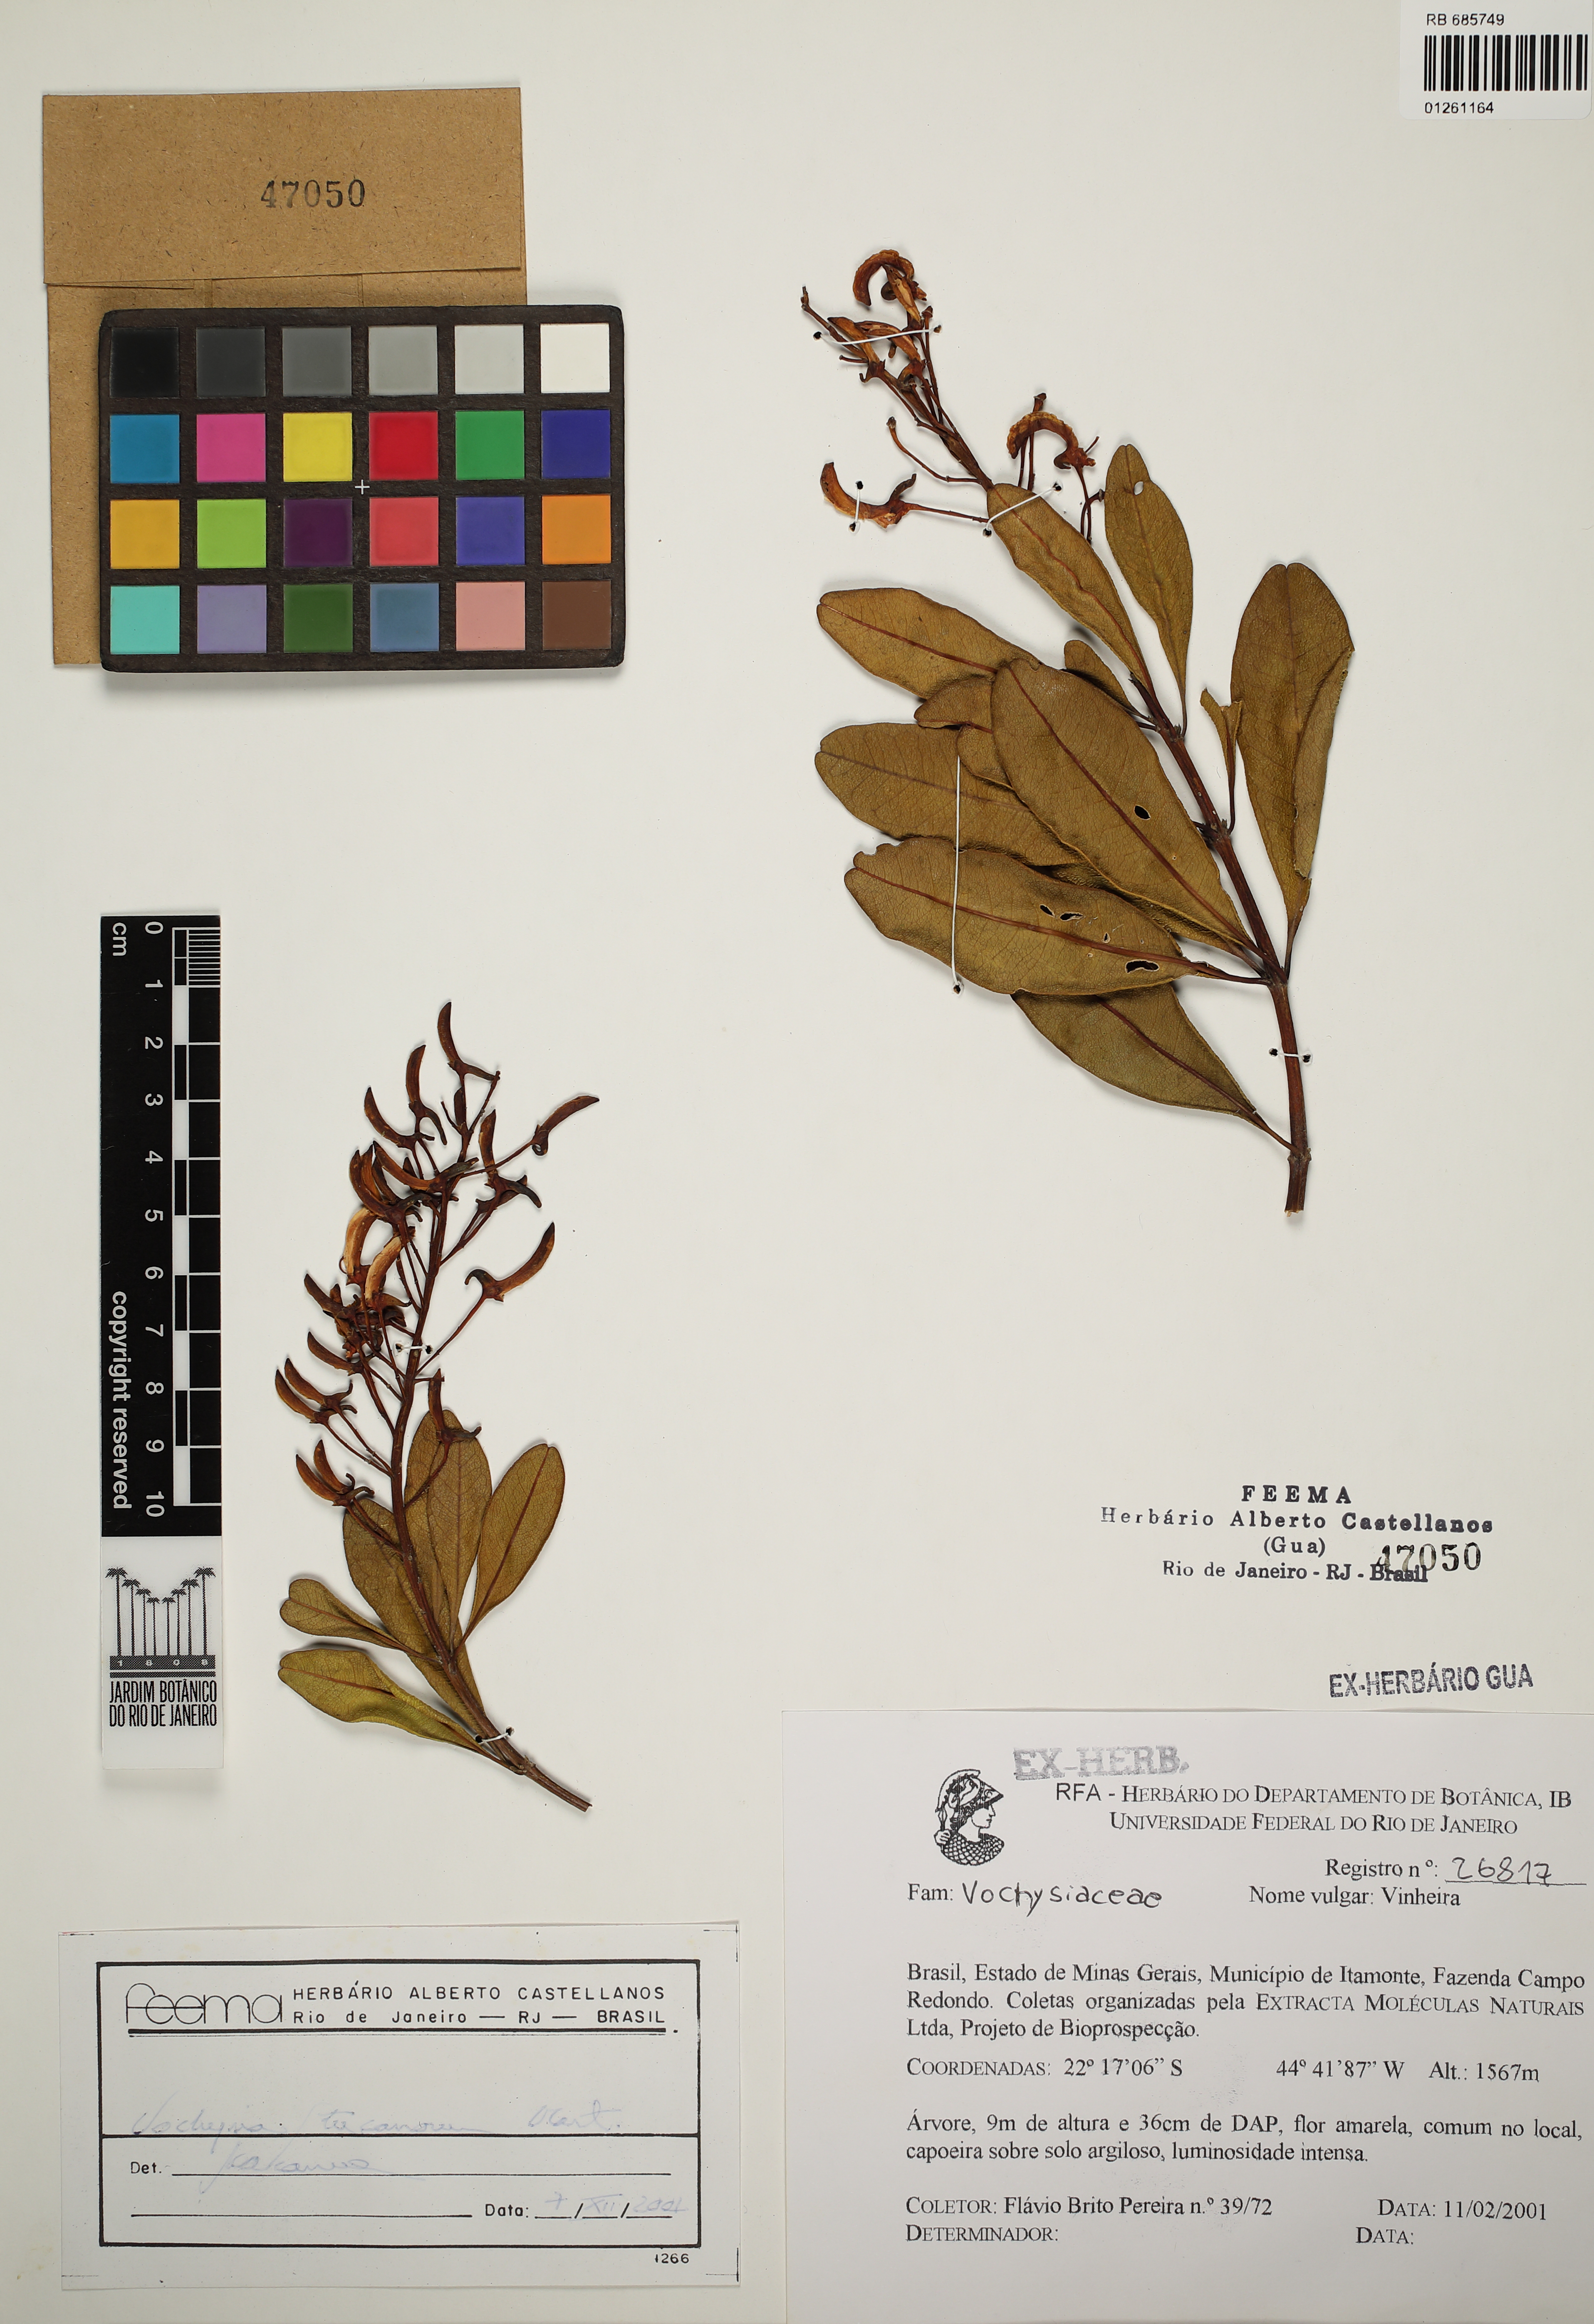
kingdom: Plantae
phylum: Tracheophyta
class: Magnoliopsida
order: Myrtales
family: Vochysiaceae
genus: Vochysia
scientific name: Vochysia tucanorum
